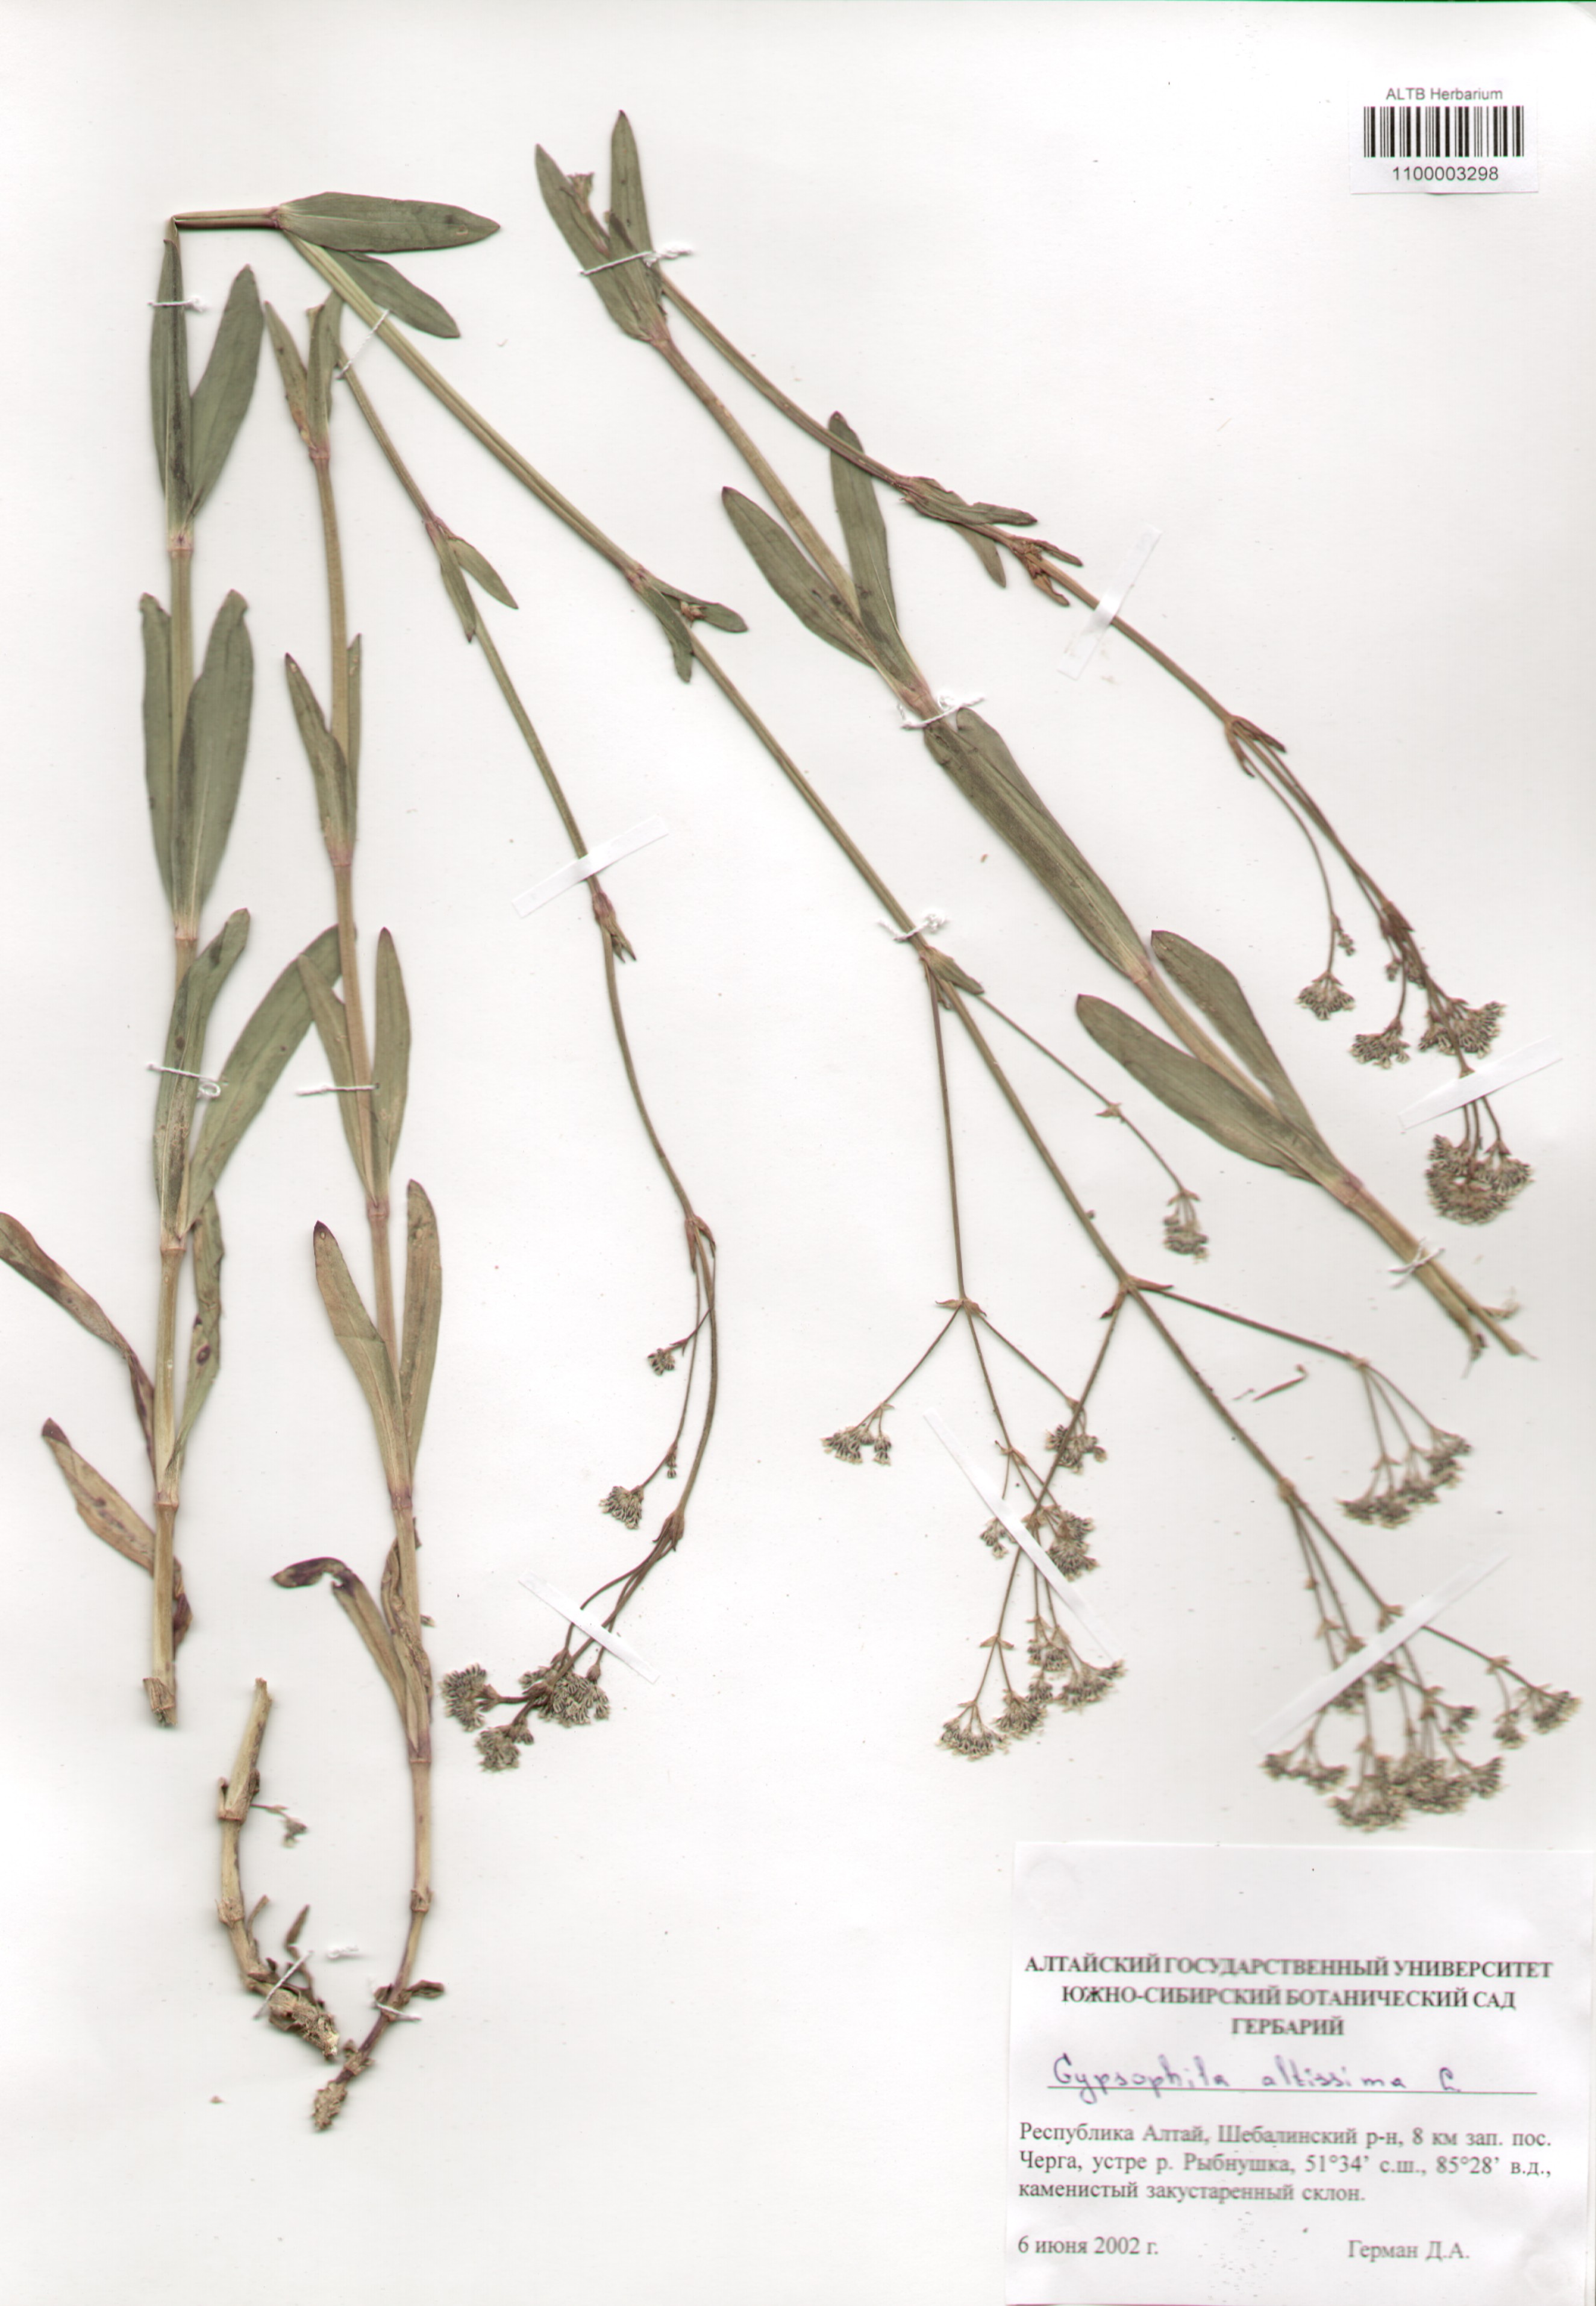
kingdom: Plantae
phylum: Tracheophyta
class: Magnoliopsida
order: Caryophyllales
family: Caryophyllaceae
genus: Gypsophila
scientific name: Gypsophila altissima
